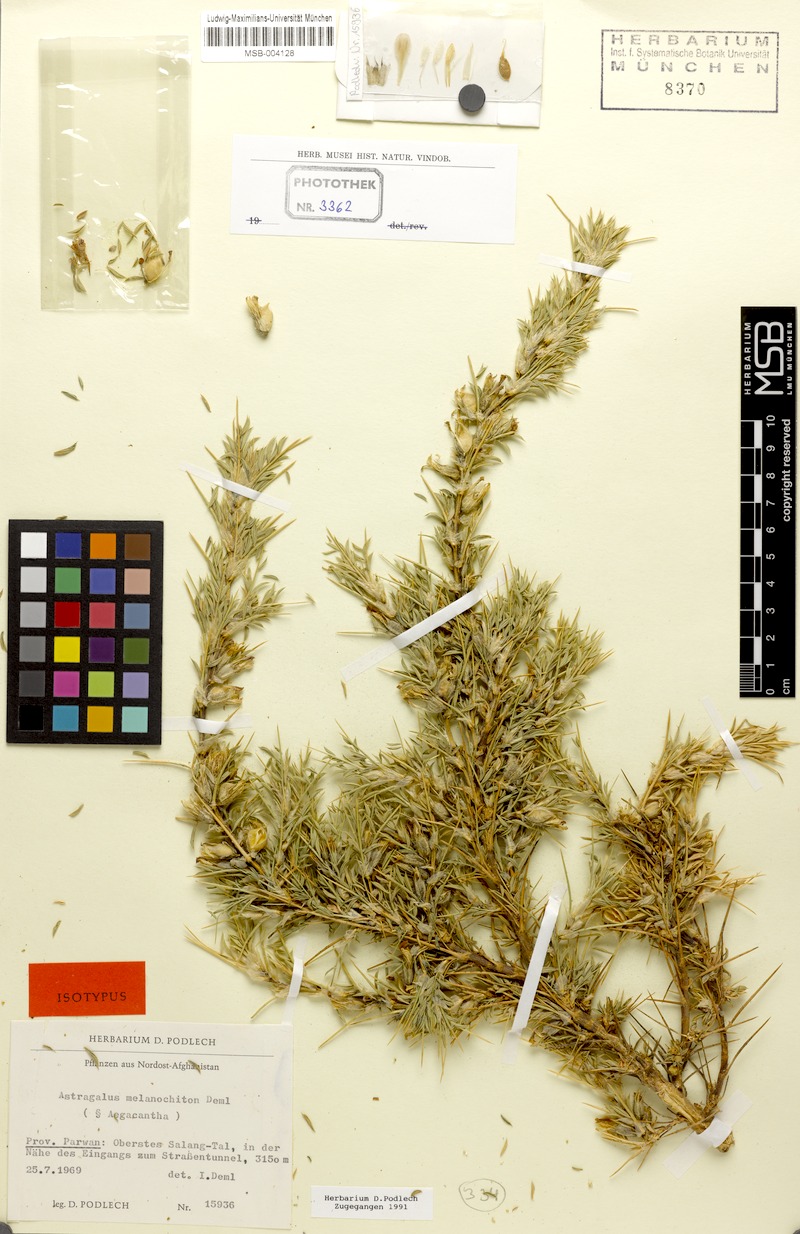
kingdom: Plantae
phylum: Tracheophyta
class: Magnoliopsida
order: Fabales
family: Fabaceae
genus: Astragalus
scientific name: Astragalus melanochiton
